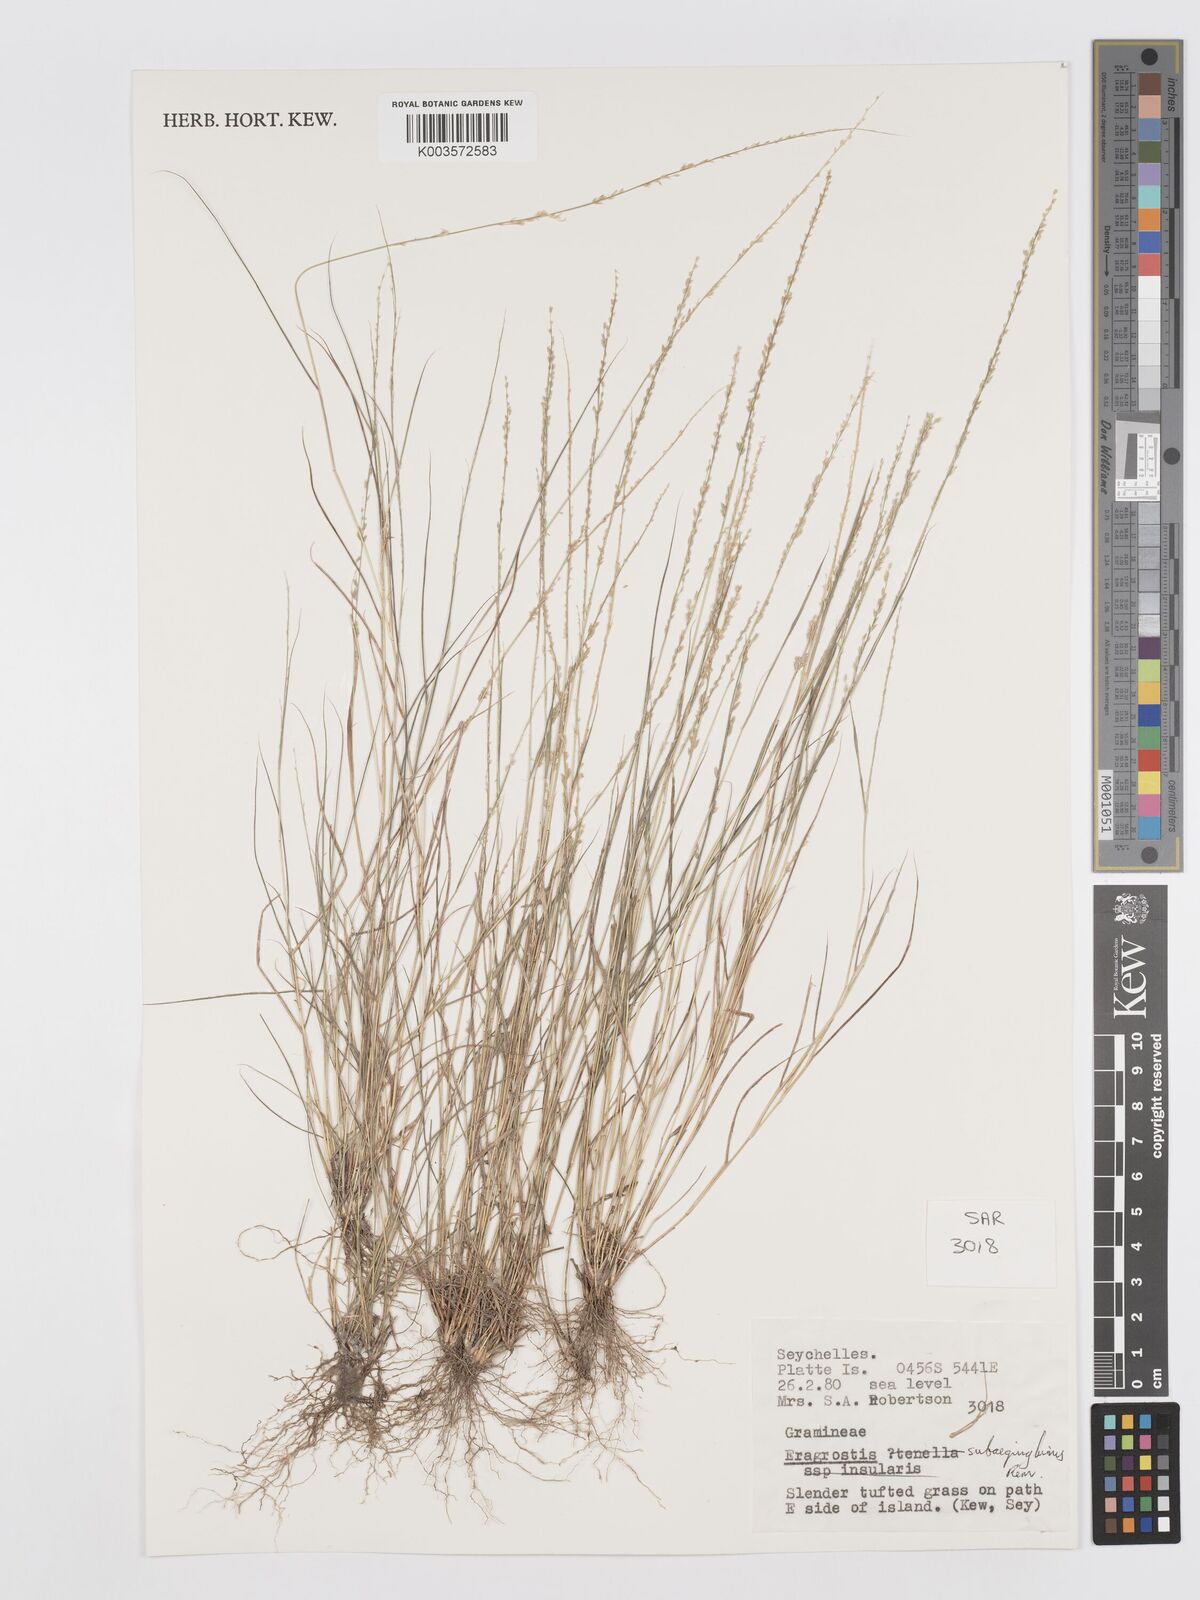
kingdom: Plantae
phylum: Tracheophyta
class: Liliopsida
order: Poales
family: Poaceae
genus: Eragrostis
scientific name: Eragrostis subaequiglumis
